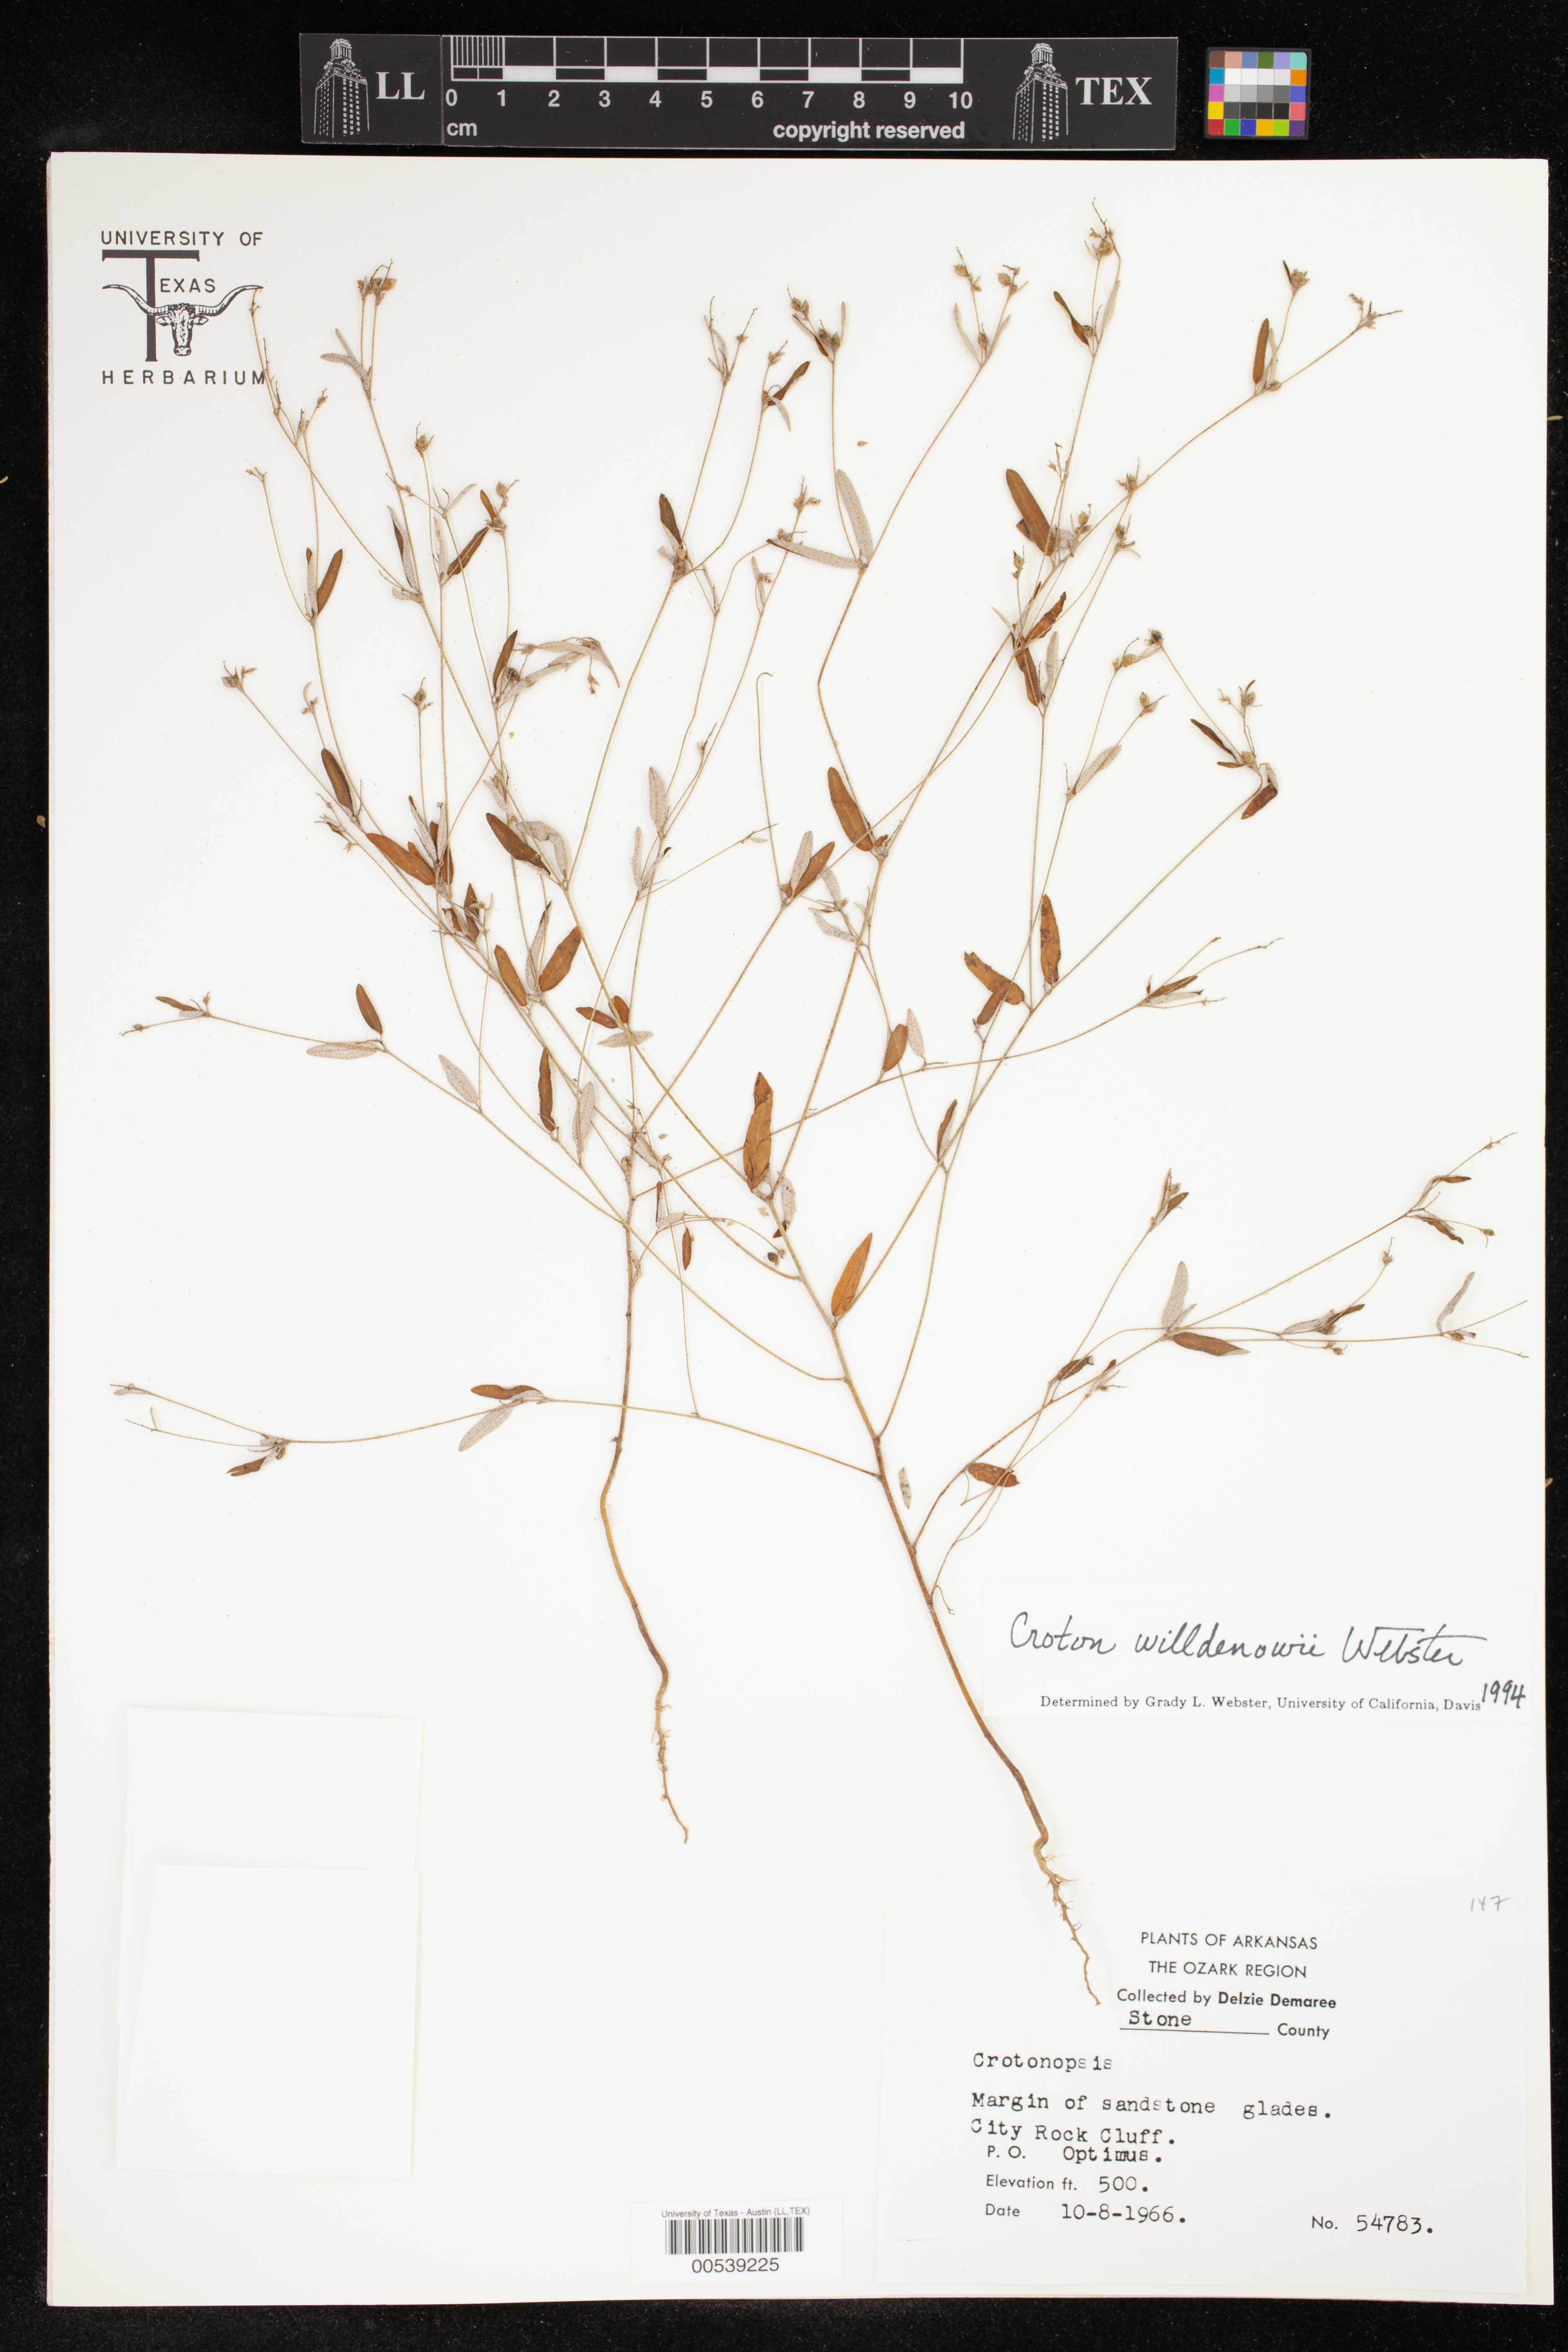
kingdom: Plantae
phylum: Tracheophyta
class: Magnoliopsida
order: Malpighiales
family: Euphorbiaceae
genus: Croton
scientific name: Croton michauxii
